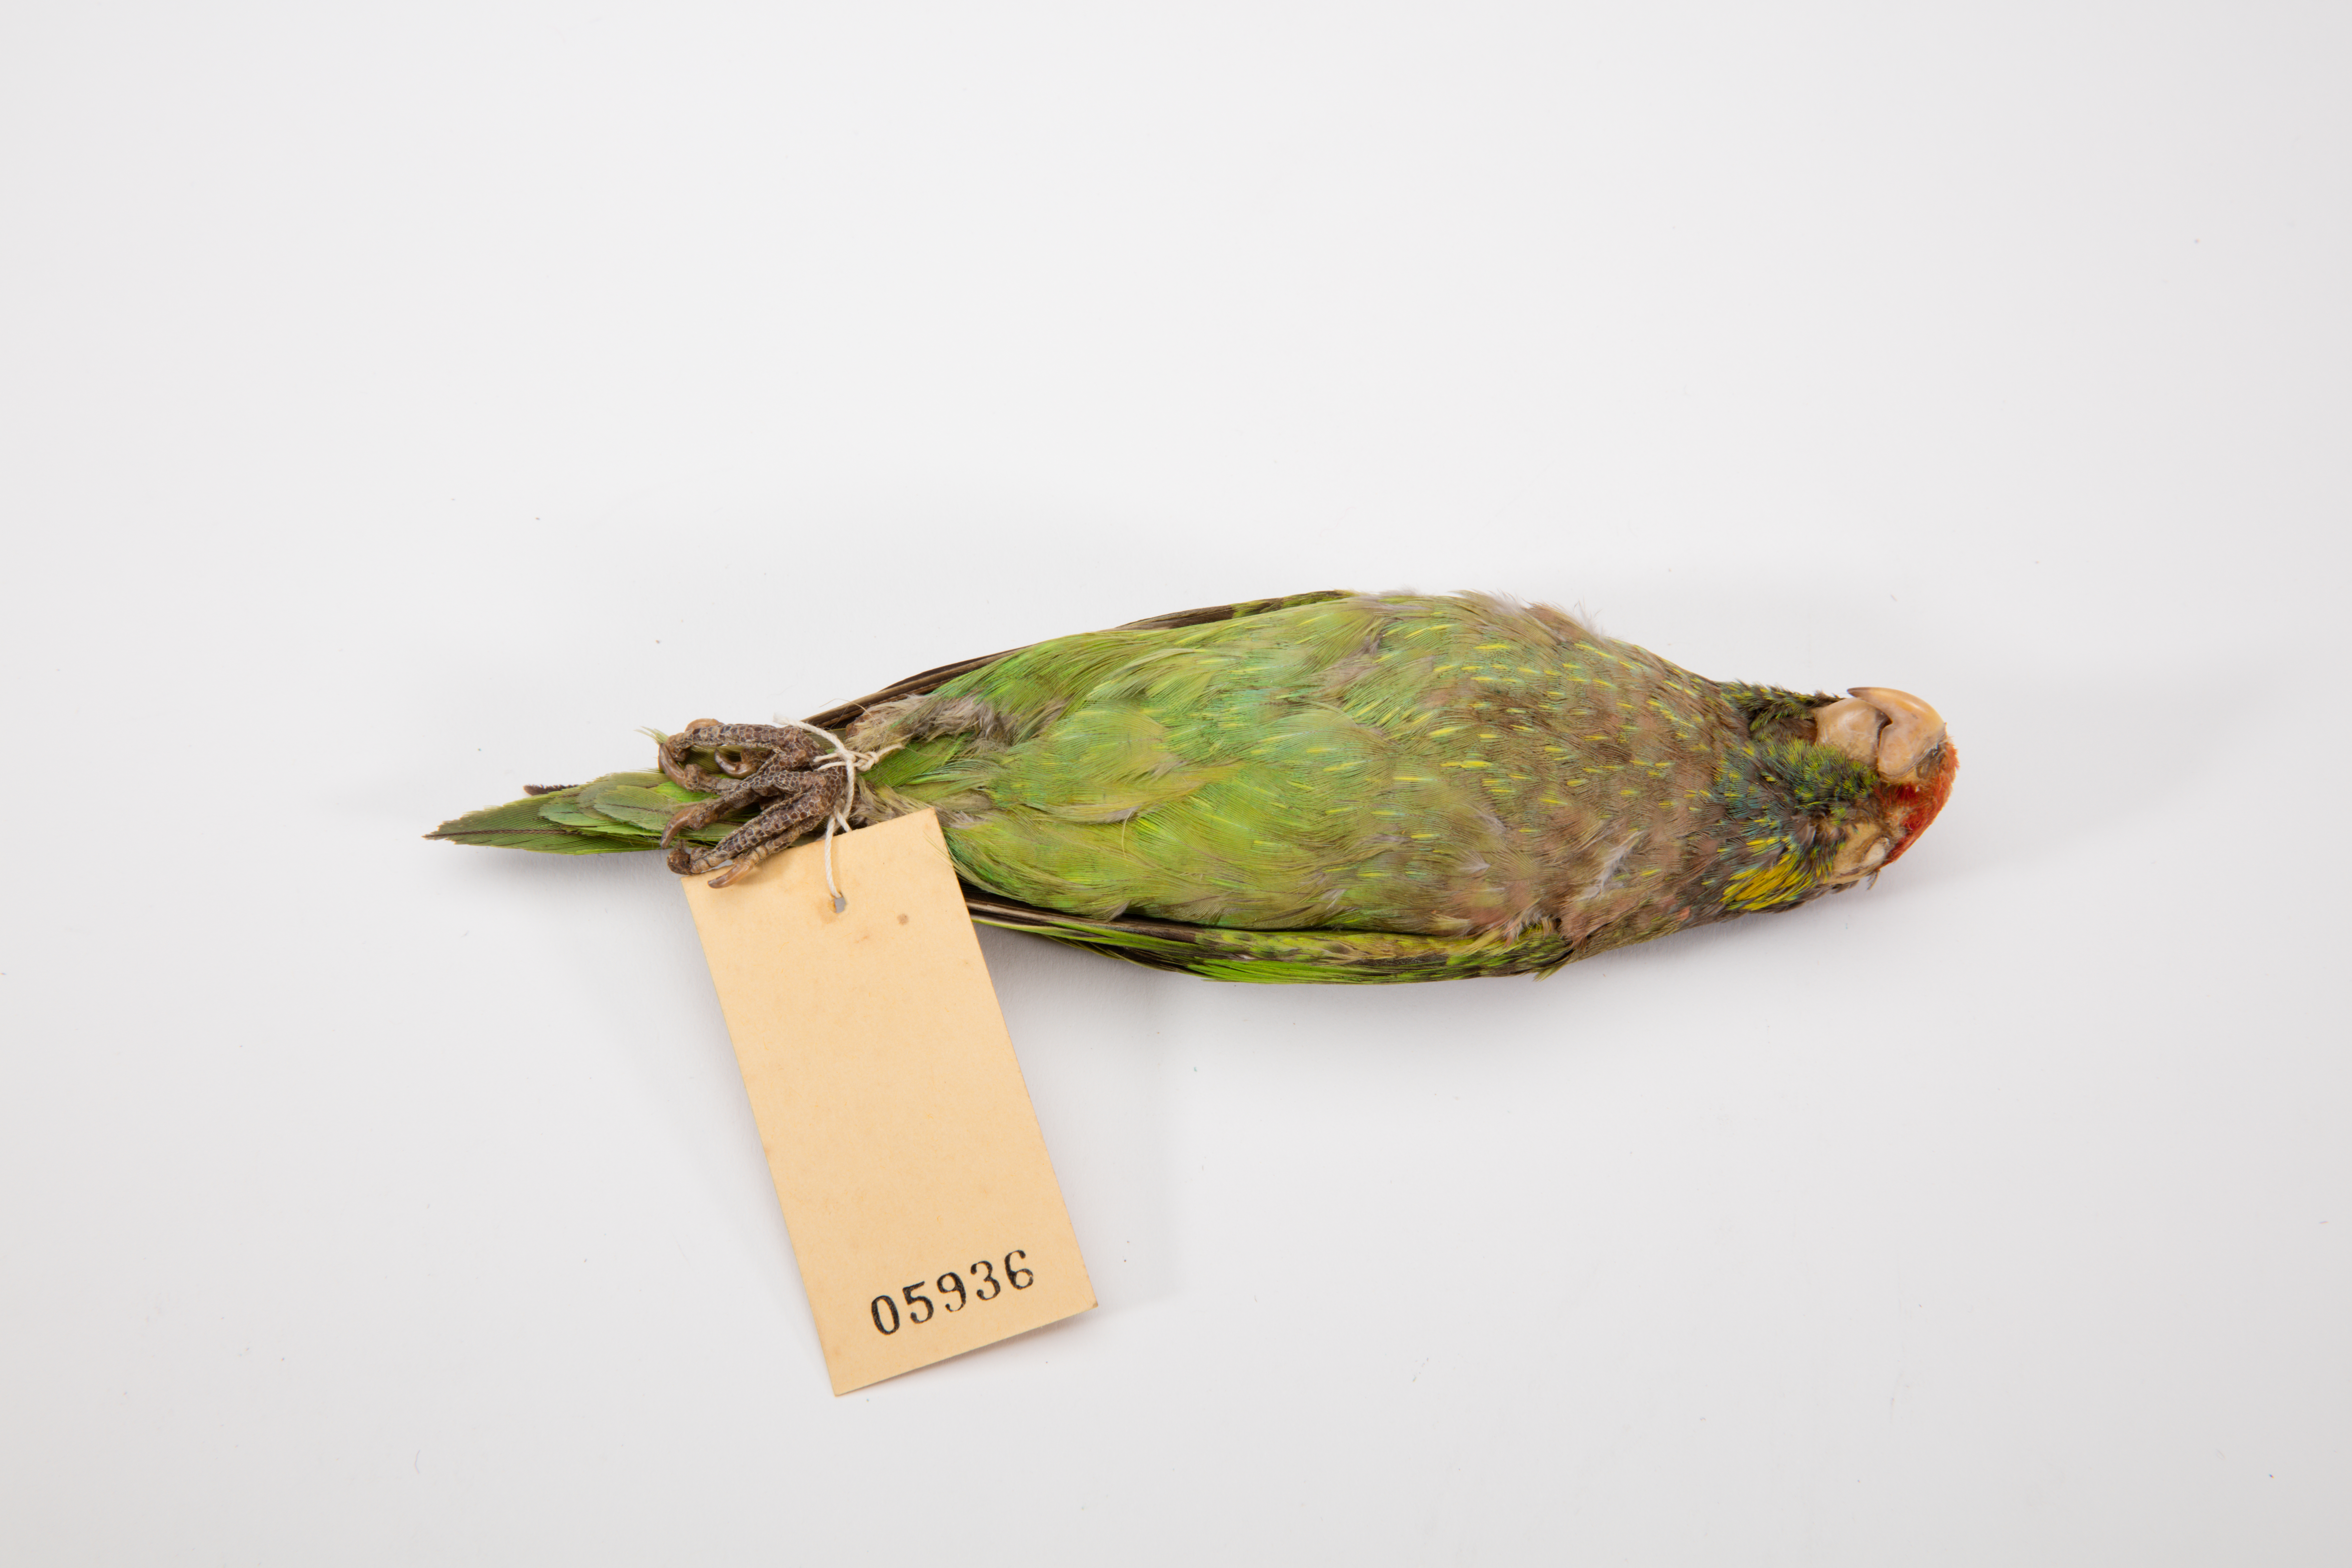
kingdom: Animalia
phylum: Chordata
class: Aves
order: Psittaciformes
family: Psittacidae
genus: Psitteuteles
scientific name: Psitteuteles versicolor
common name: Varied lorikeet
